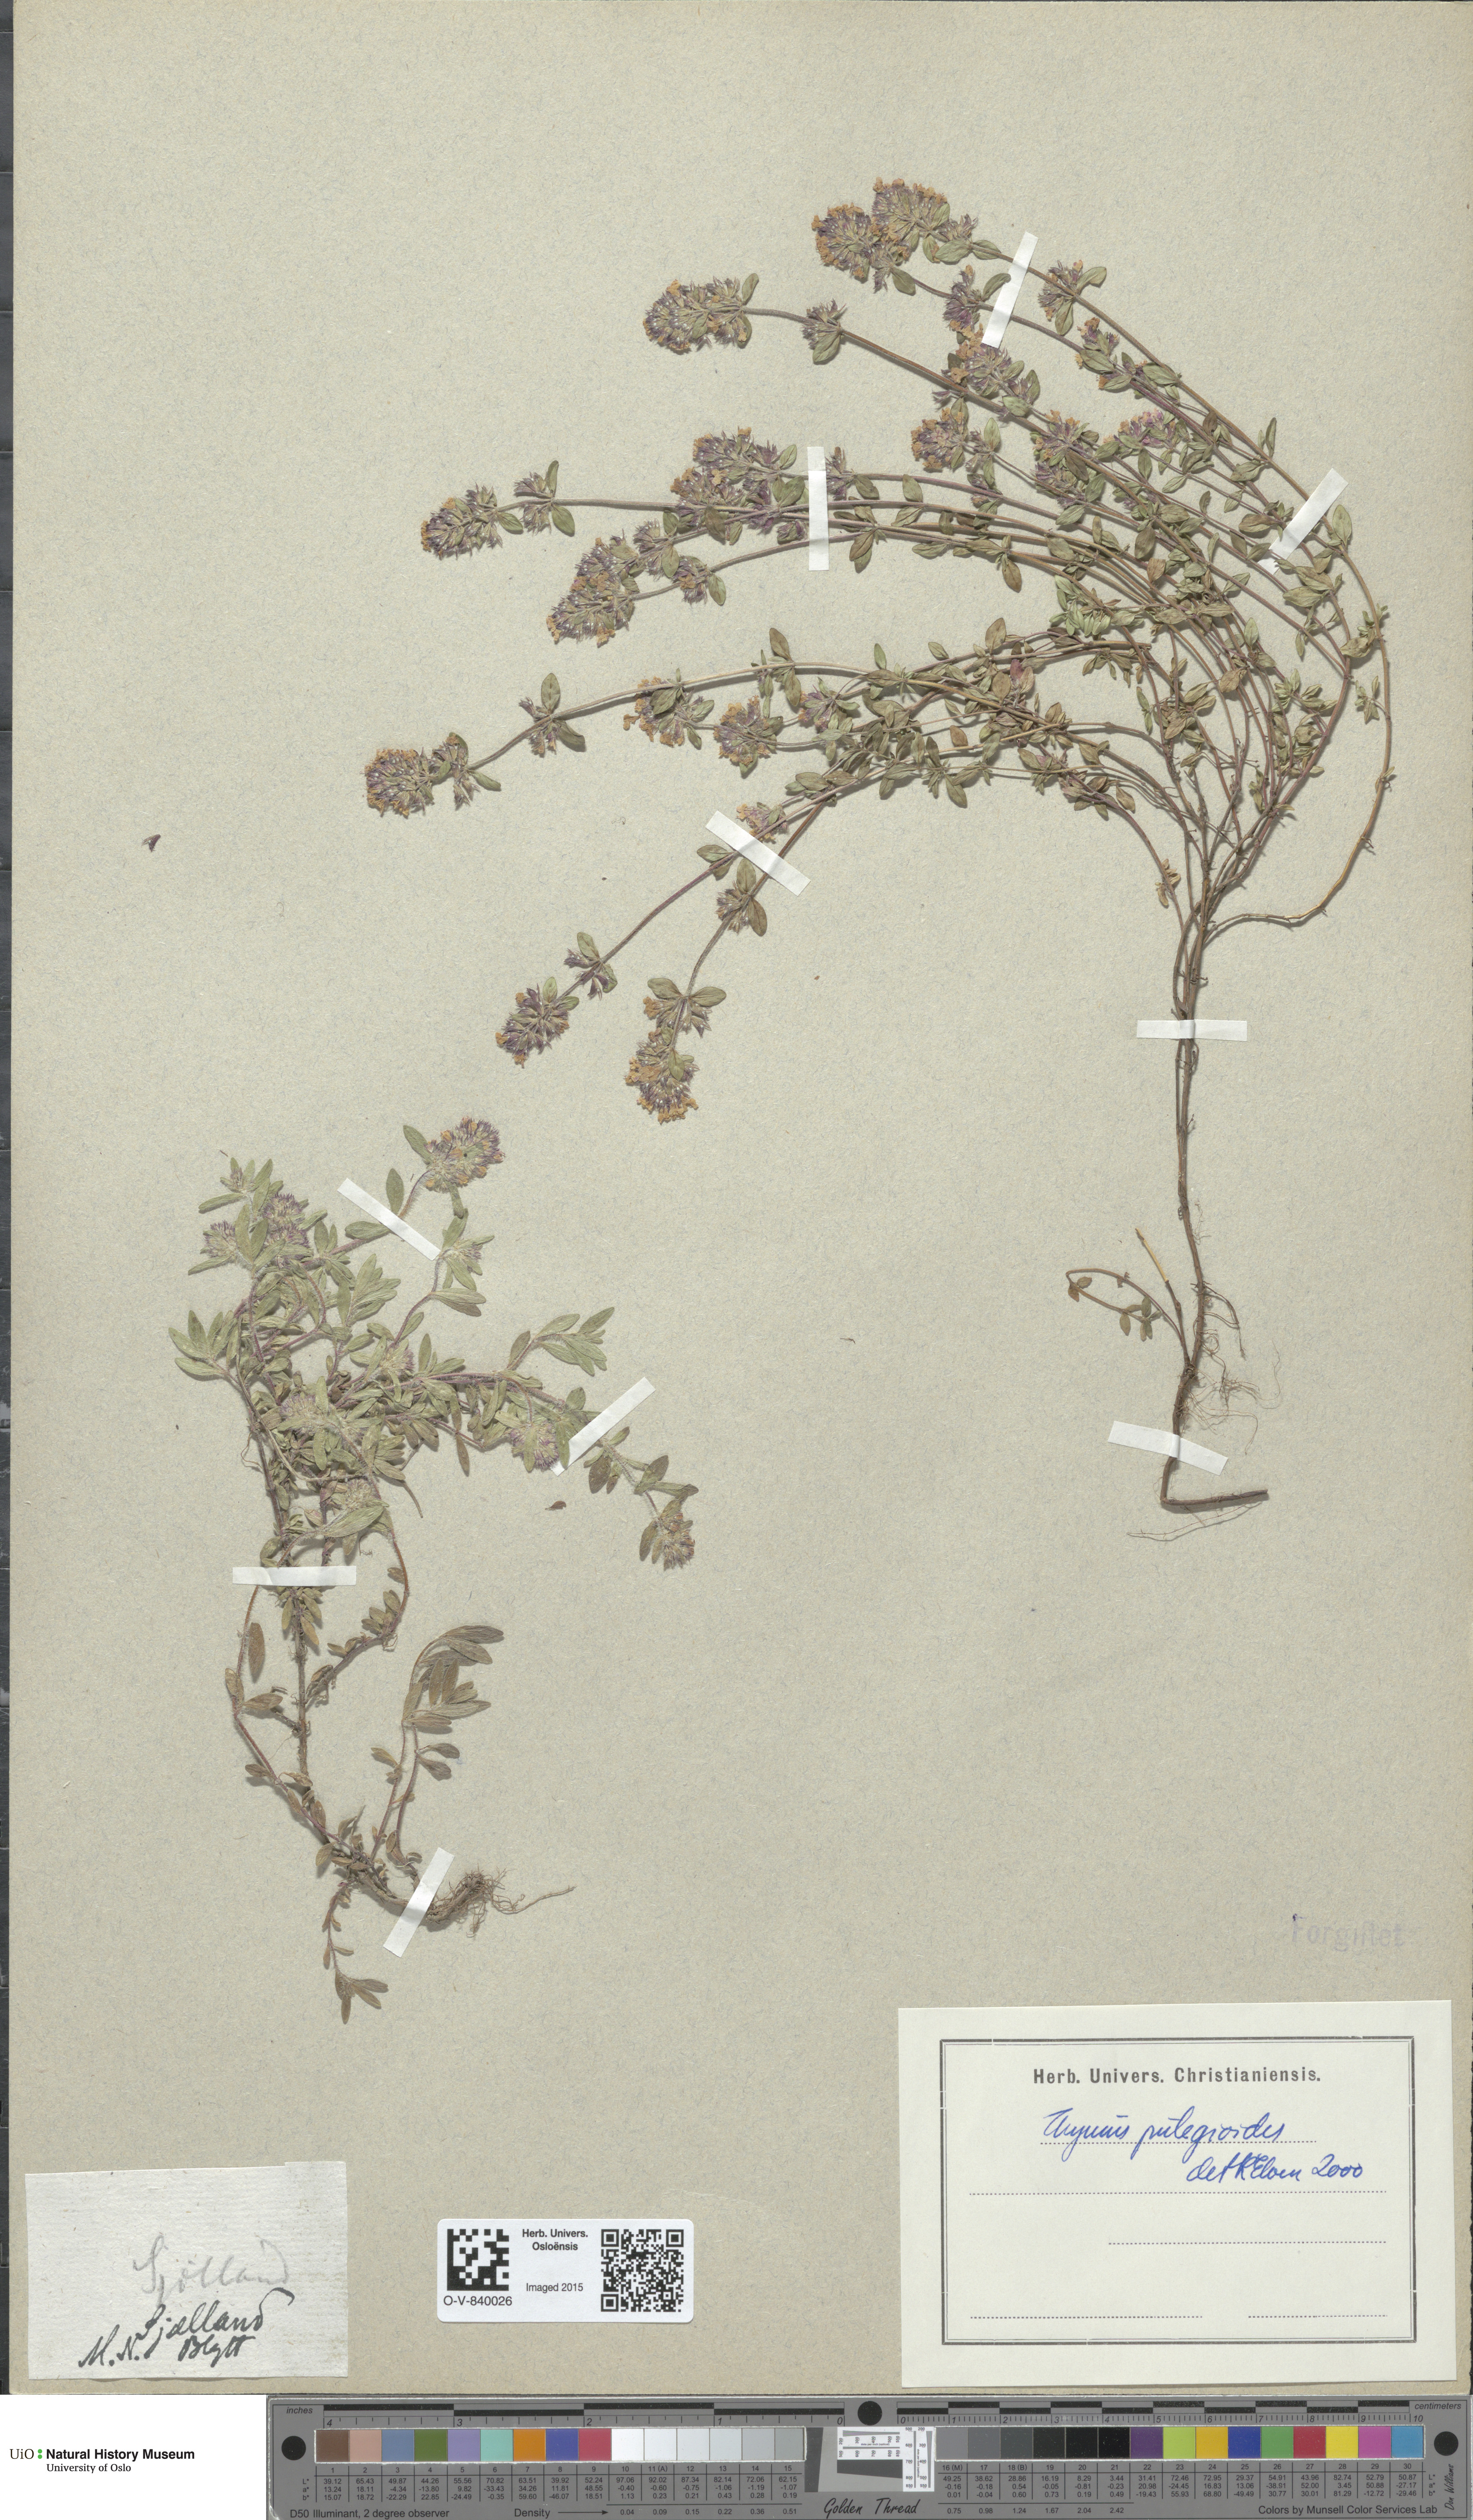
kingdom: Plantae
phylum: Tracheophyta
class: Magnoliopsida
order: Lamiales
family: Lamiaceae
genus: Thymus
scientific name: Thymus pulegioides
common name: Large thyme
